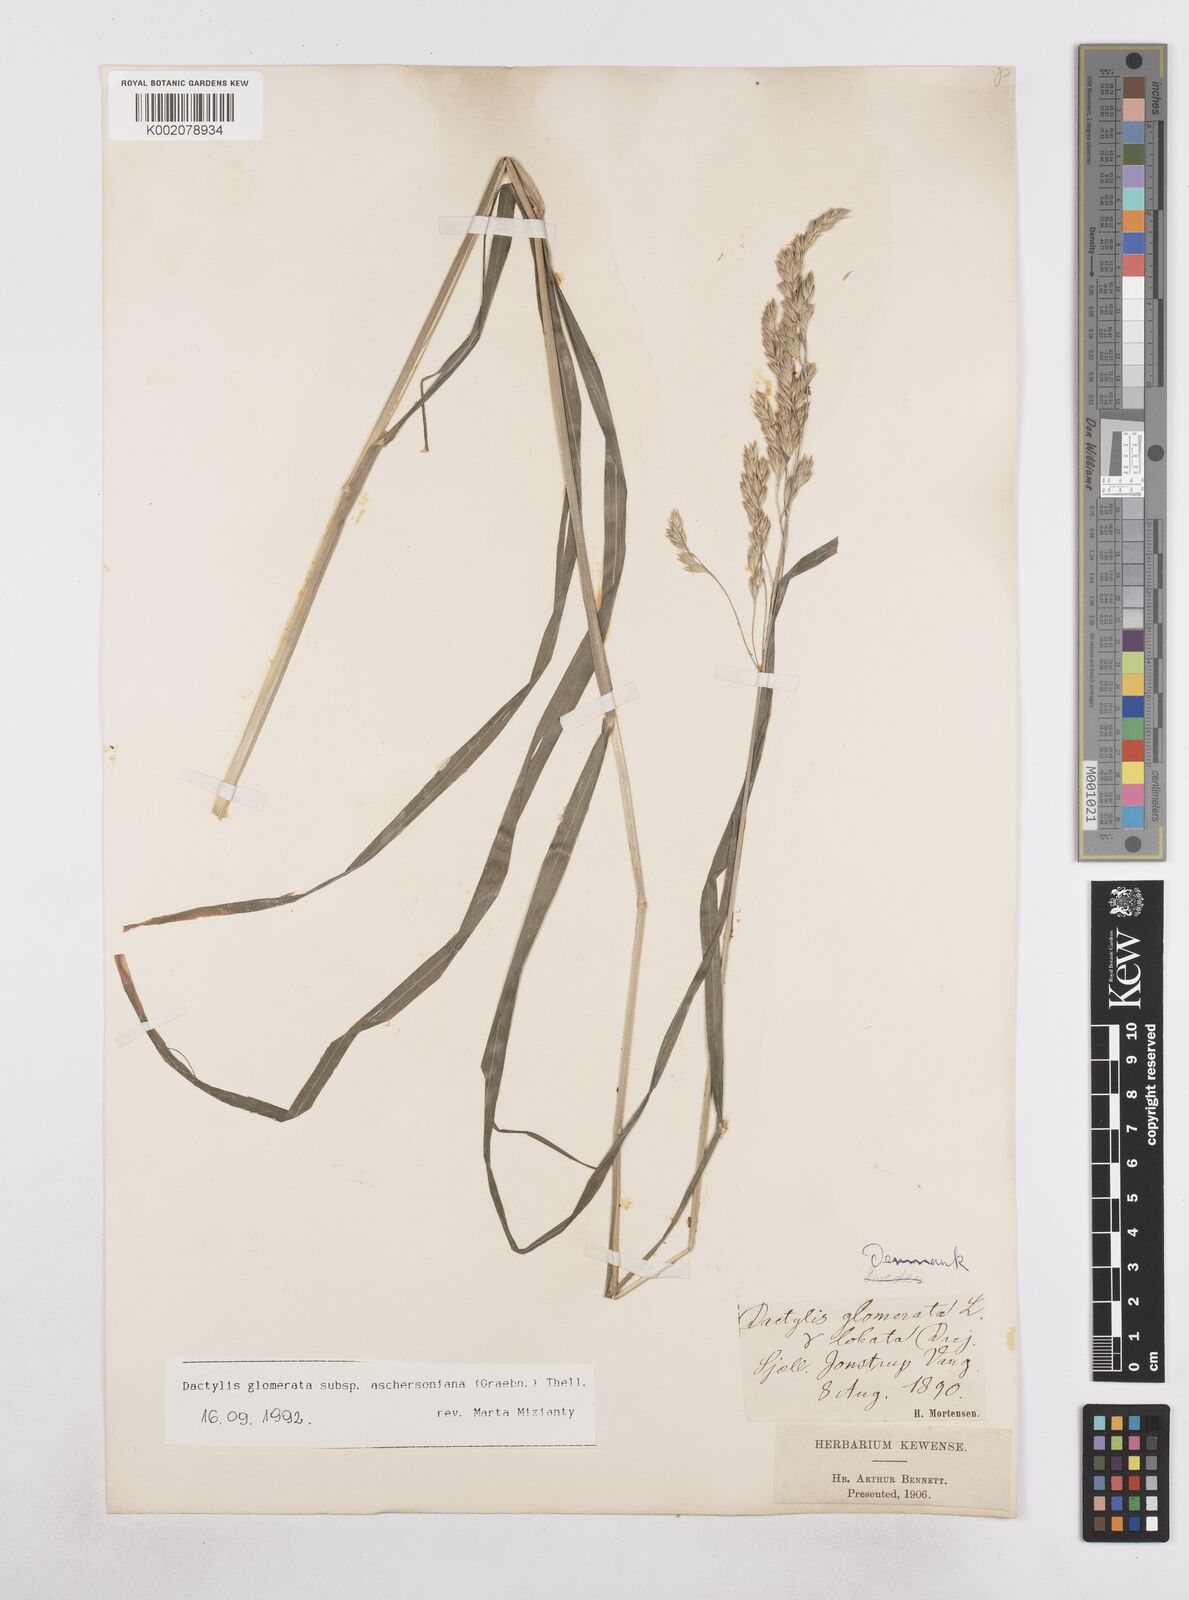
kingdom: Plantae
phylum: Tracheophyta
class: Liliopsida
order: Poales
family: Poaceae
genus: Dactylis
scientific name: Dactylis glomerata
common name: Orchardgrass
